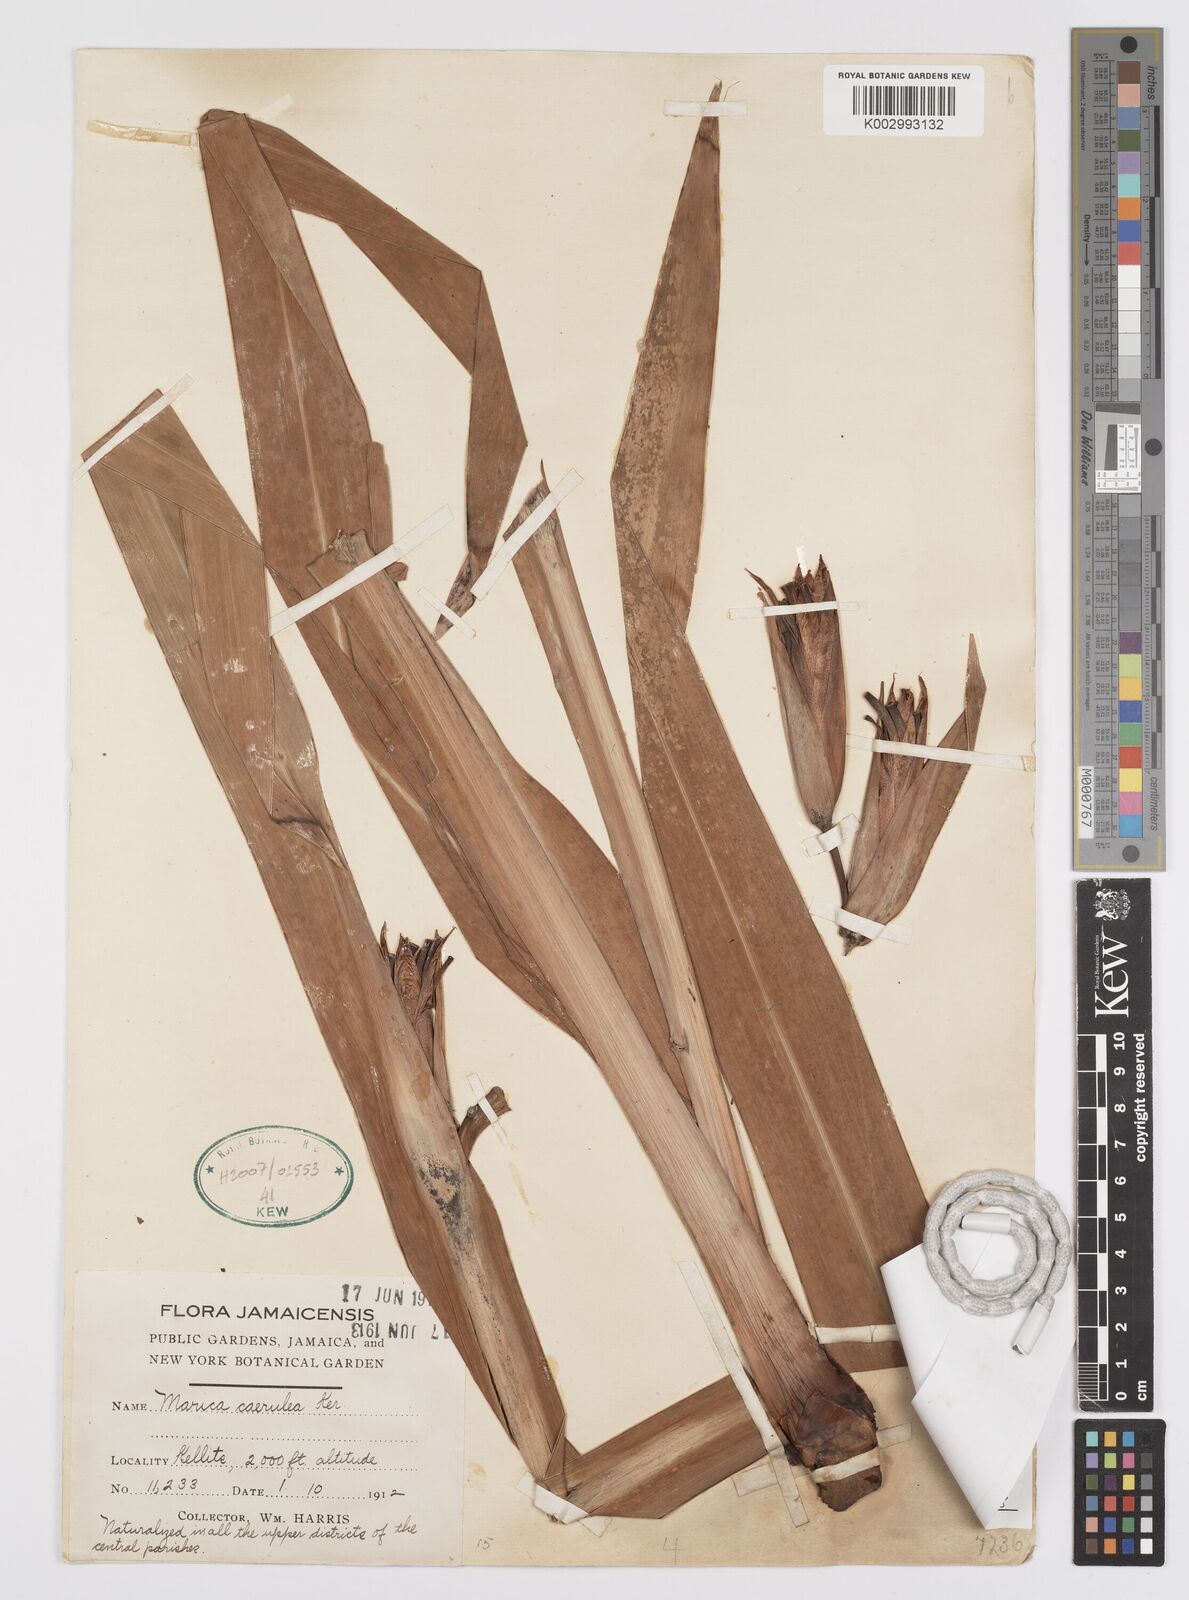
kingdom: Plantae
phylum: Tracheophyta
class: Liliopsida
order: Asparagales
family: Iridaceae
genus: Trimezia
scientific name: Trimezia sabini
